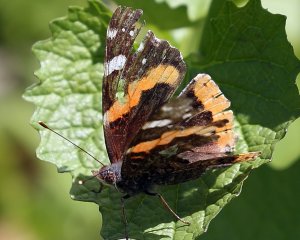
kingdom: Animalia
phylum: Arthropoda
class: Insecta
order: Lepidoptera
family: Nymphalidae
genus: Vanessa
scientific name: Vanessa atalanta
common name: Red Admiral
